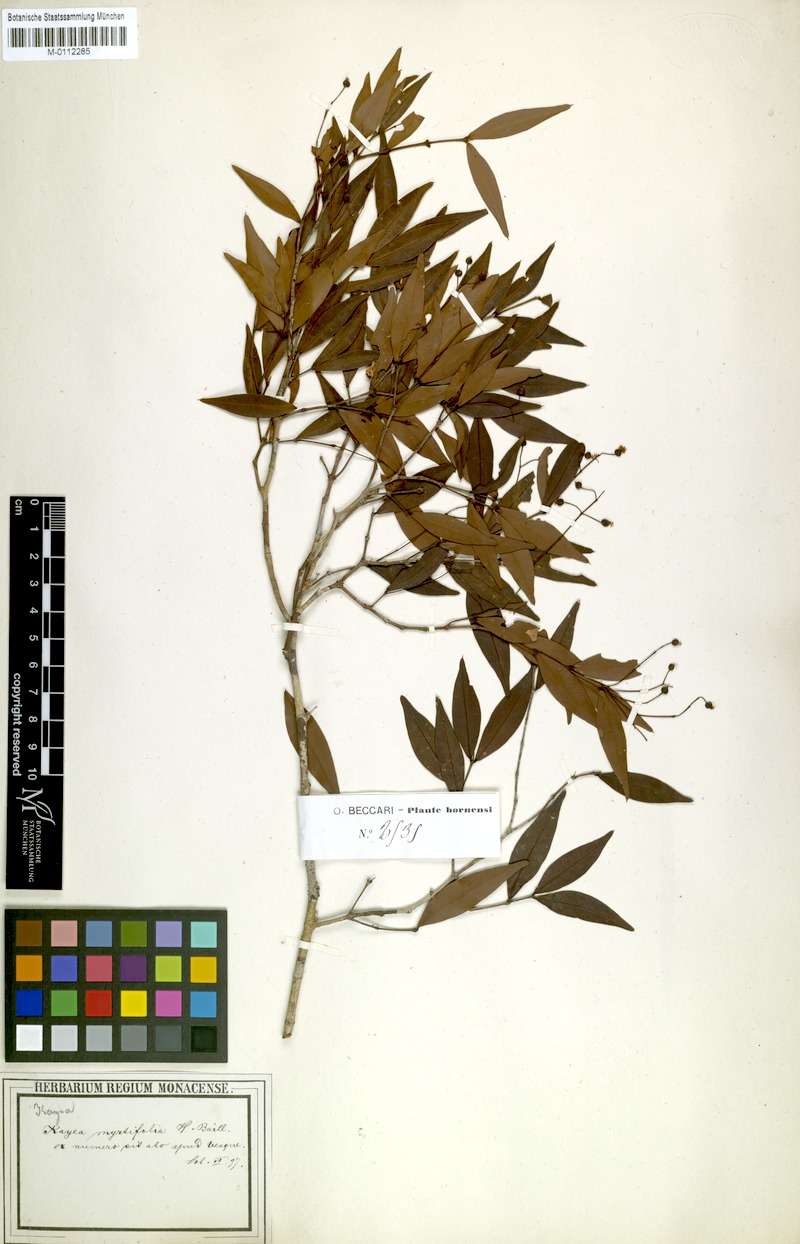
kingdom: Plantae
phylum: Tracheophyta
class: Magnoliopsida
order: Malpighiales
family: Calophyllaceae
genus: Kayea
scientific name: Kayea myrtifolia
